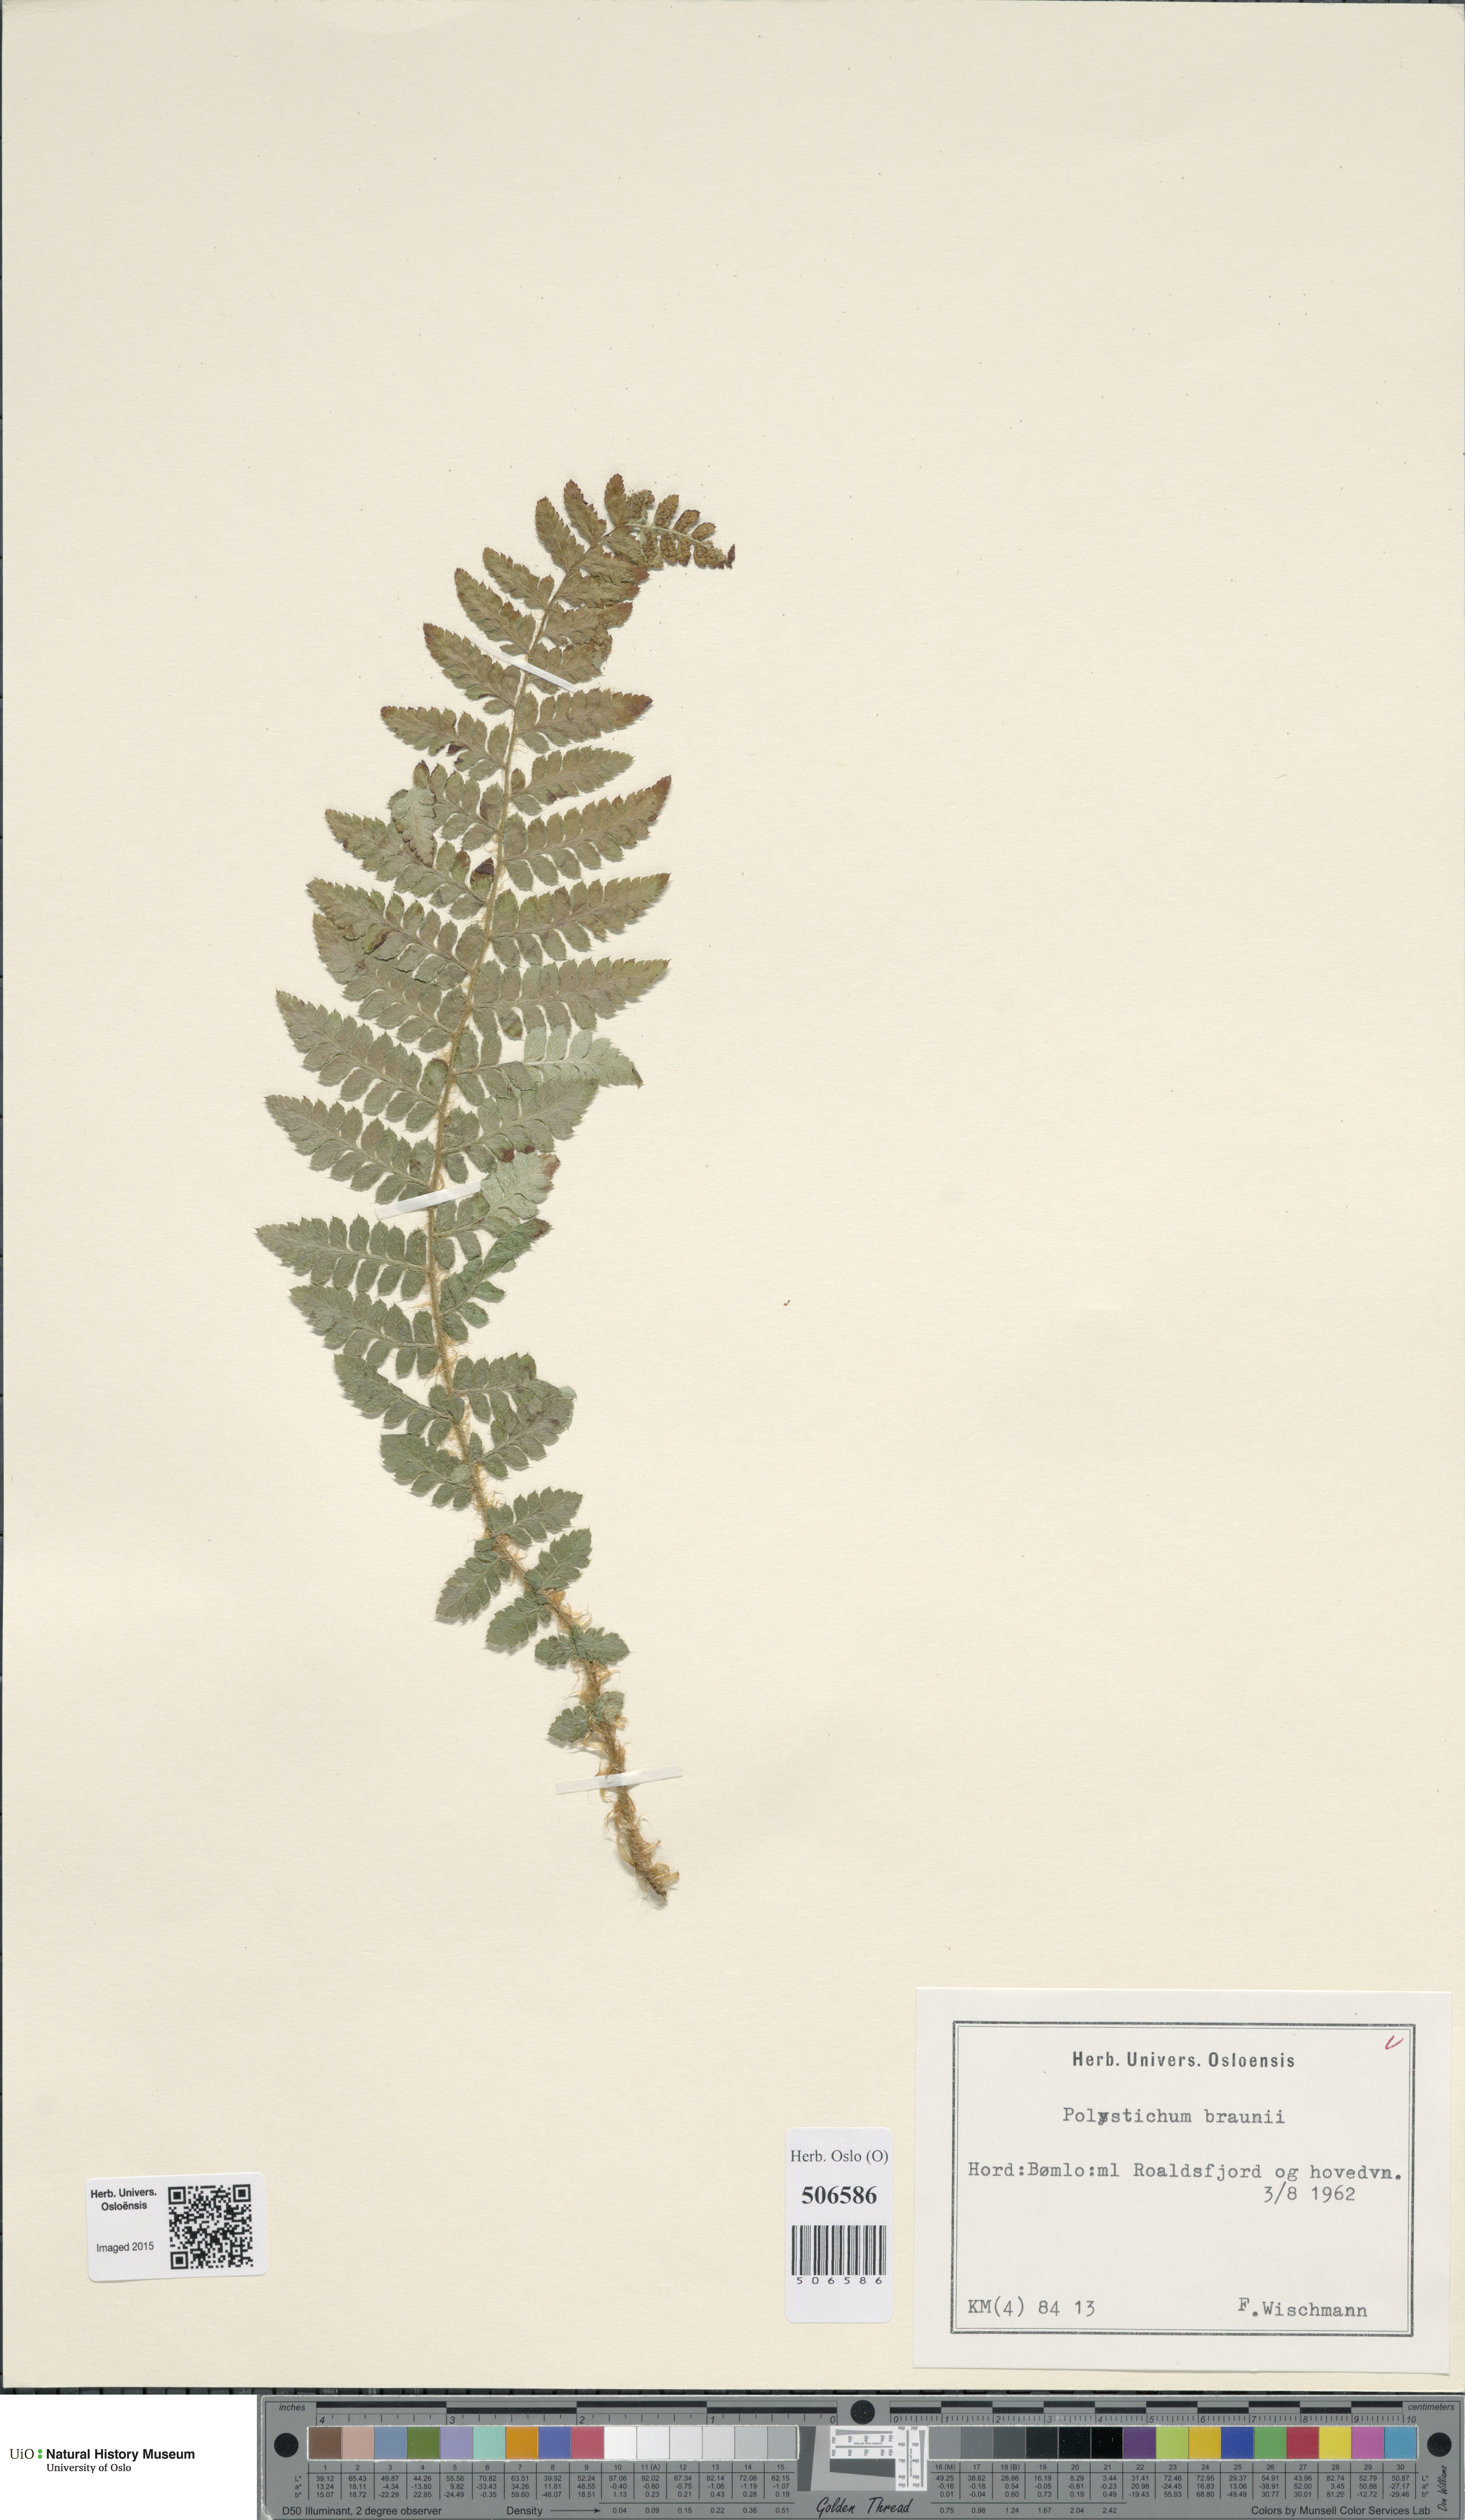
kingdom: Plantae
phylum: Tracheophyta
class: Polypodiopsida
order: Polypodiales
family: Dryopteridaceae
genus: Polystichum
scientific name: Polystichum braunii
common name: Braun's holly fern
